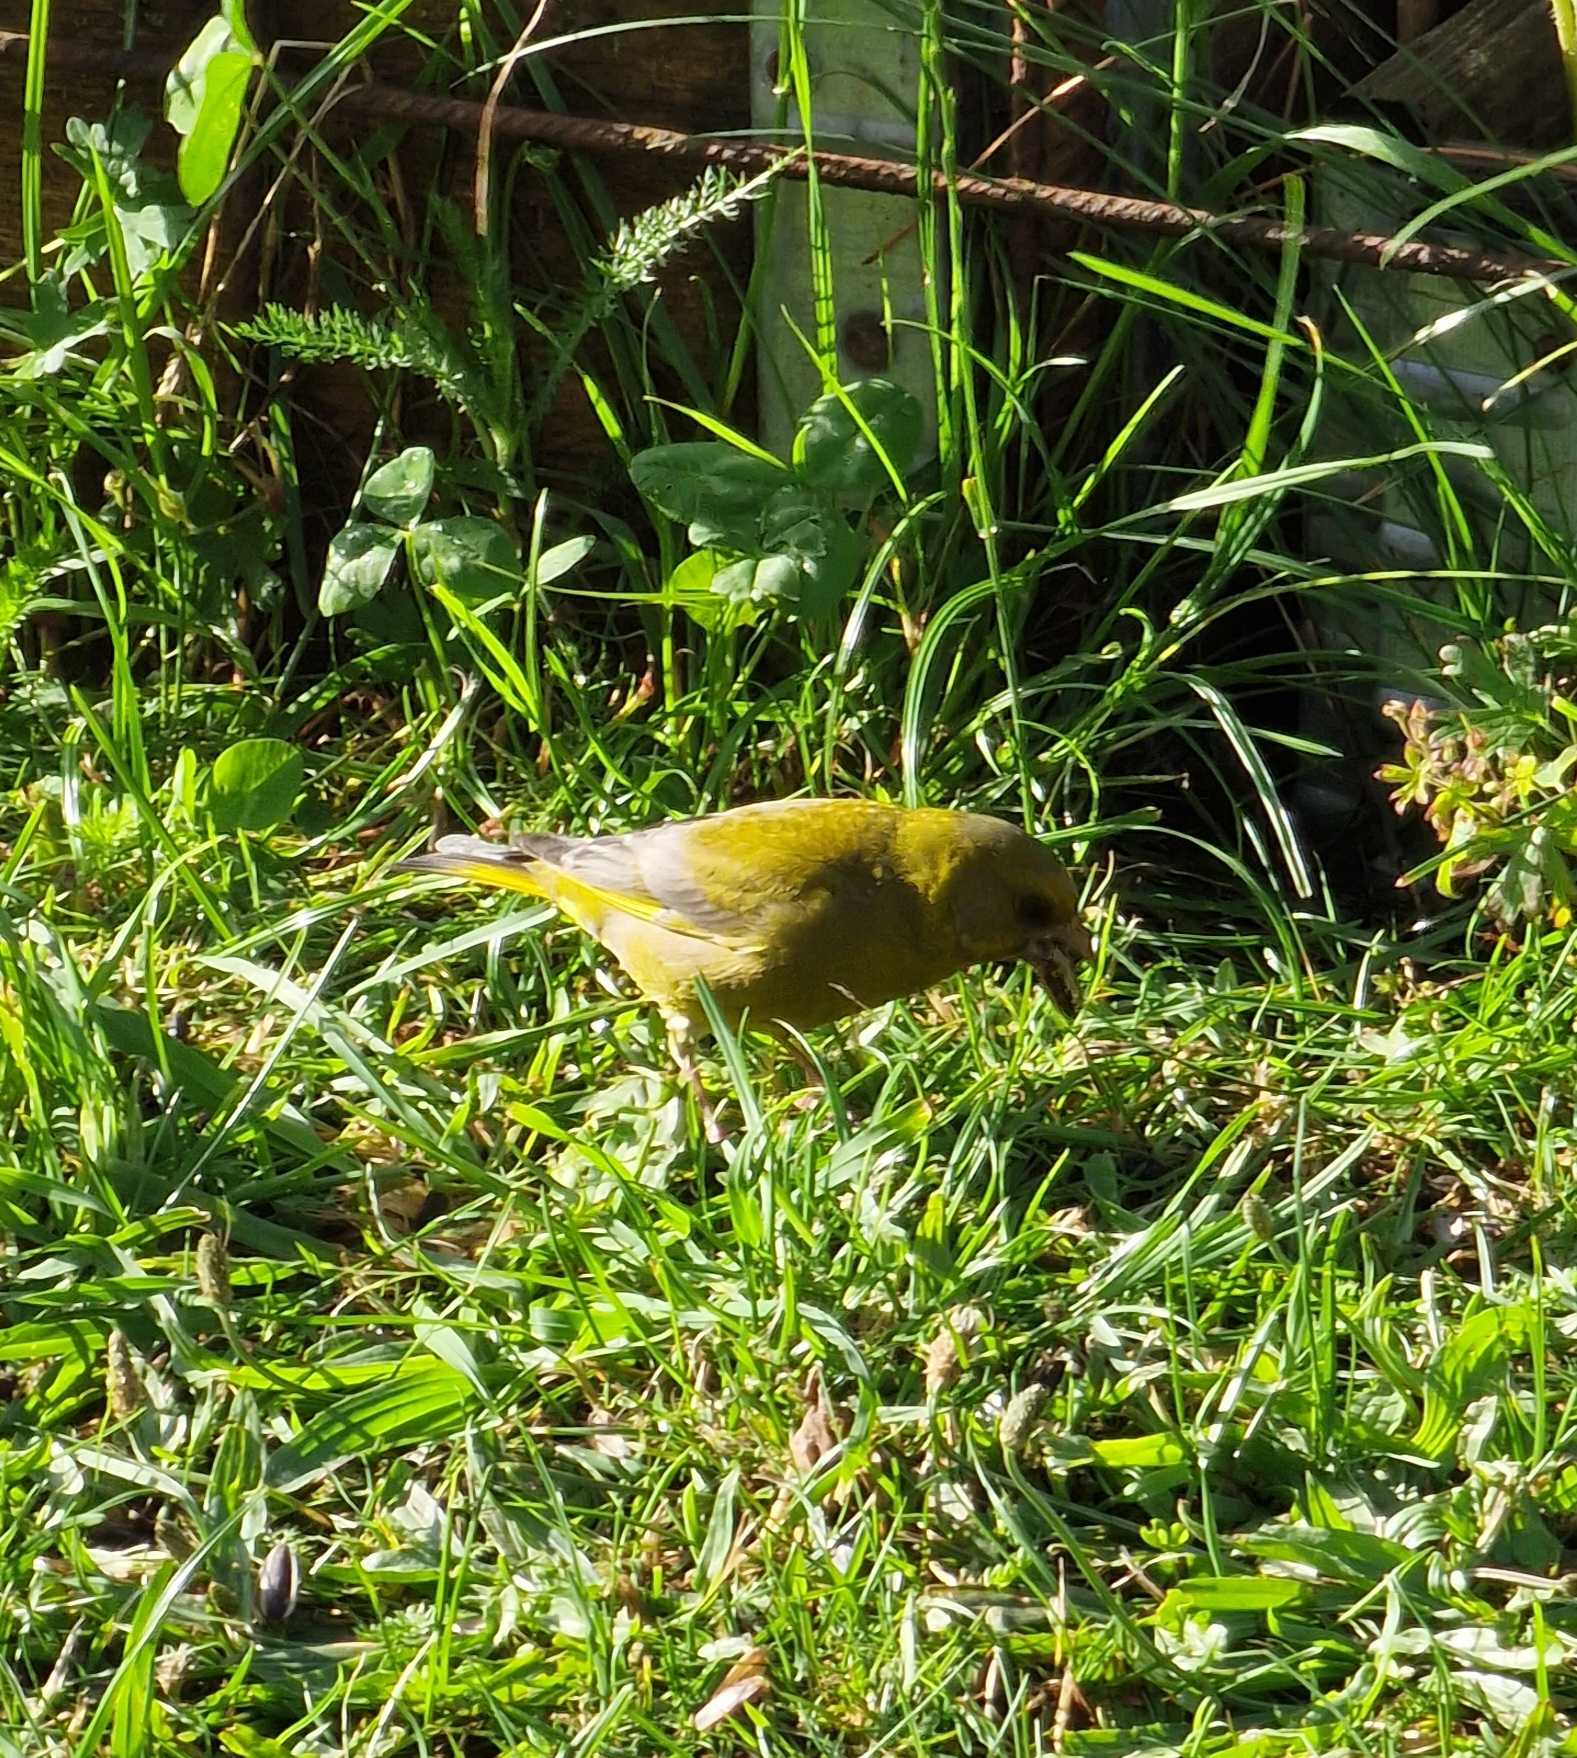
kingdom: Plantae
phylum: Tracheophyta
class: Liliopsida
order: Poales
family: Poaceae
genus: Chloris
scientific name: Chloris chloris
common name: Grønirisk
